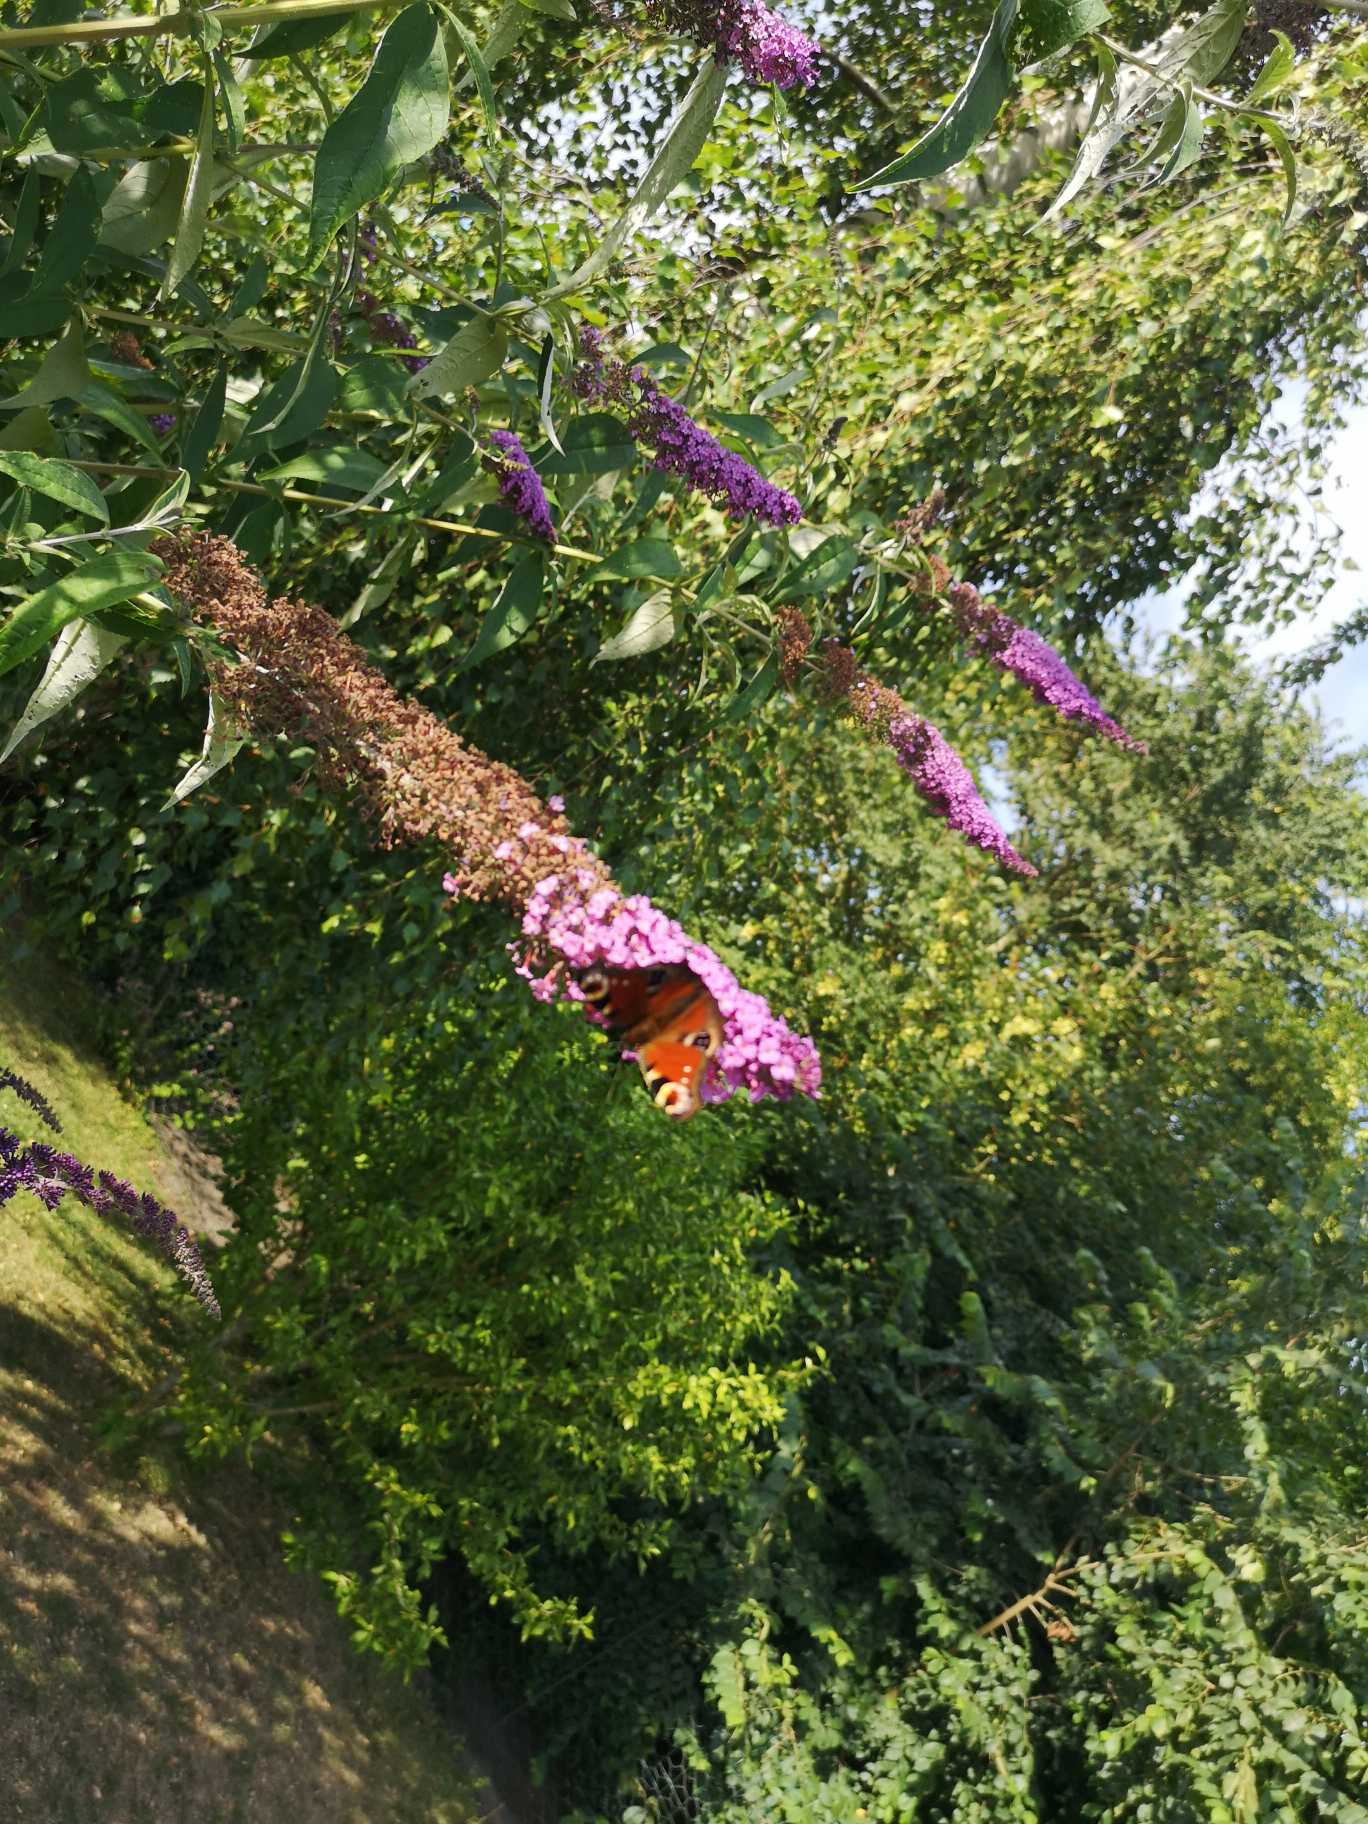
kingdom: Animalia
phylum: Arthropoda
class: Insecta
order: Lepidoptera
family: Nymphalidae
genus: Aglais
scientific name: Aglais io
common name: Dagpåfugleøje
